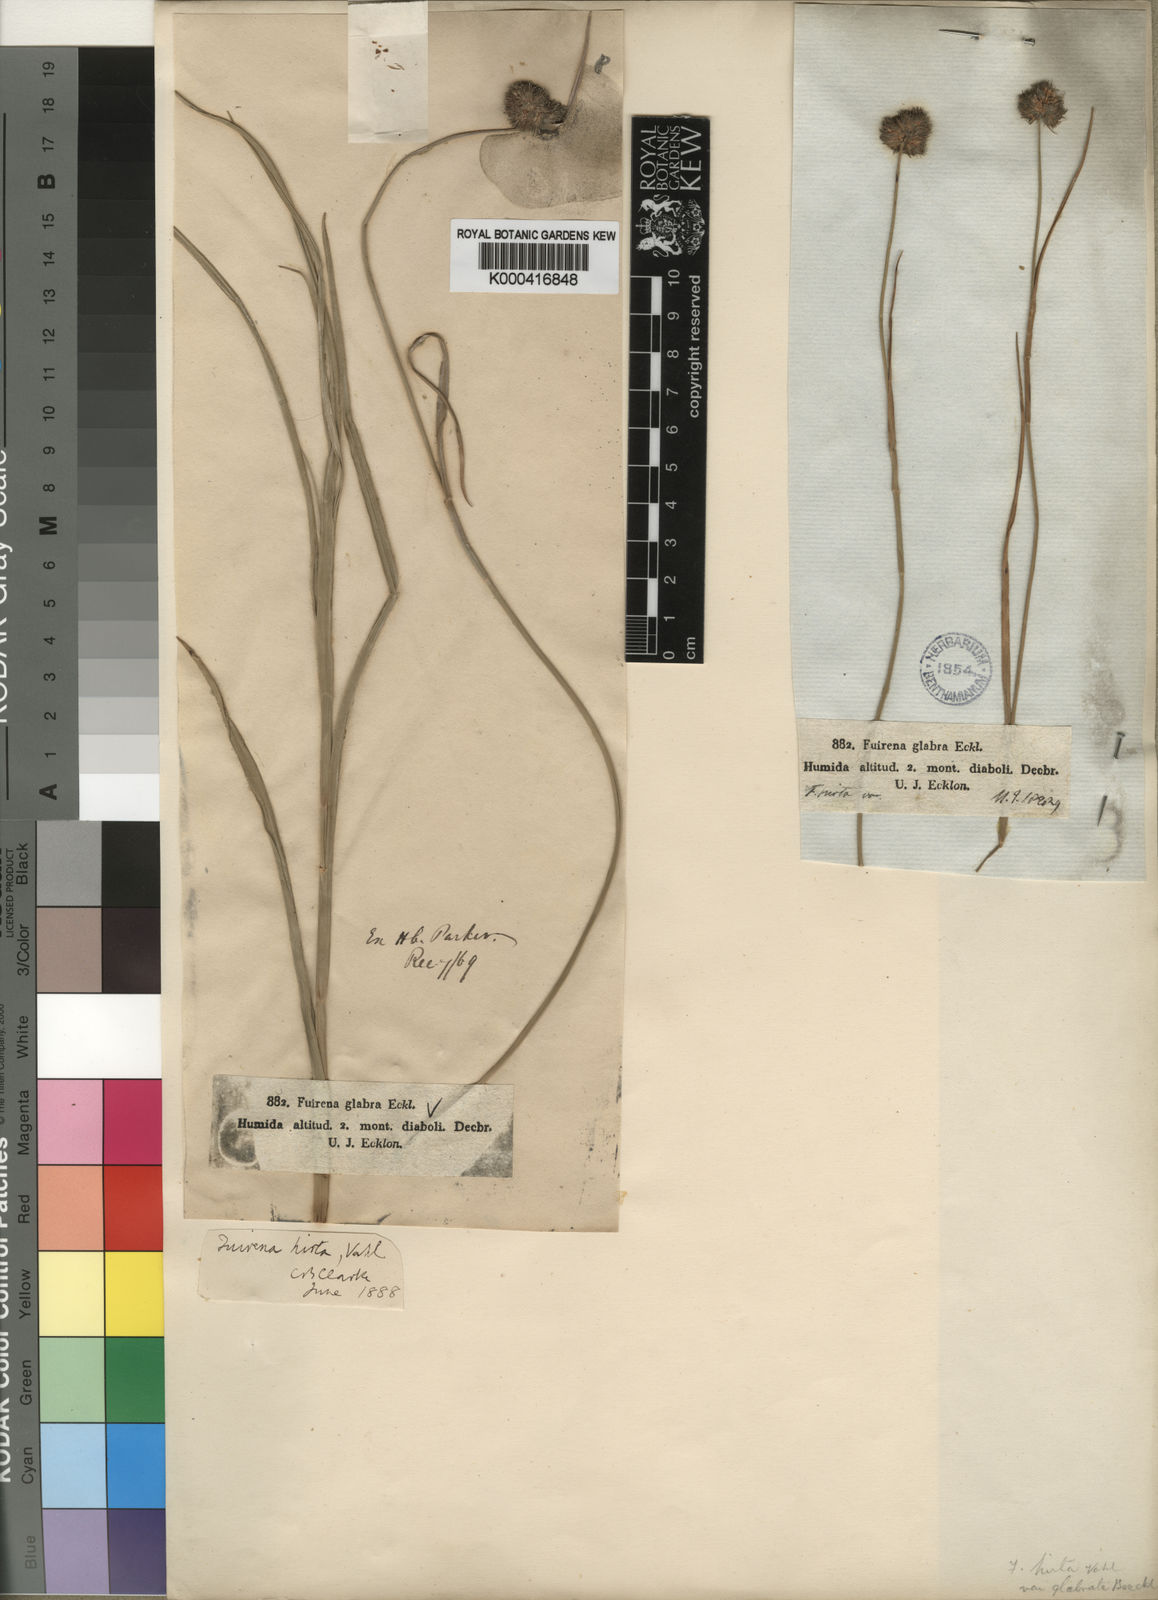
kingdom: Plantae
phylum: Tracheophyta
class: Liliopsida
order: Poales
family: Cyperaceae
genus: Fuirena
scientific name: Fuirena hirsuta
